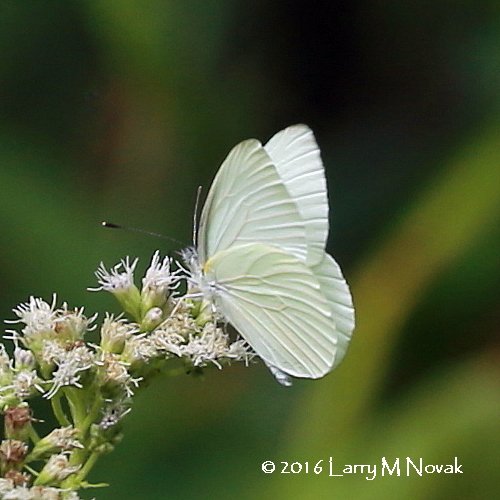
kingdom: Animalia
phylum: Arthropoda
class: Insecta
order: Lepidoptera
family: Pieridae
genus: Pieris
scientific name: Pieris oleracea
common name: Mustard White
